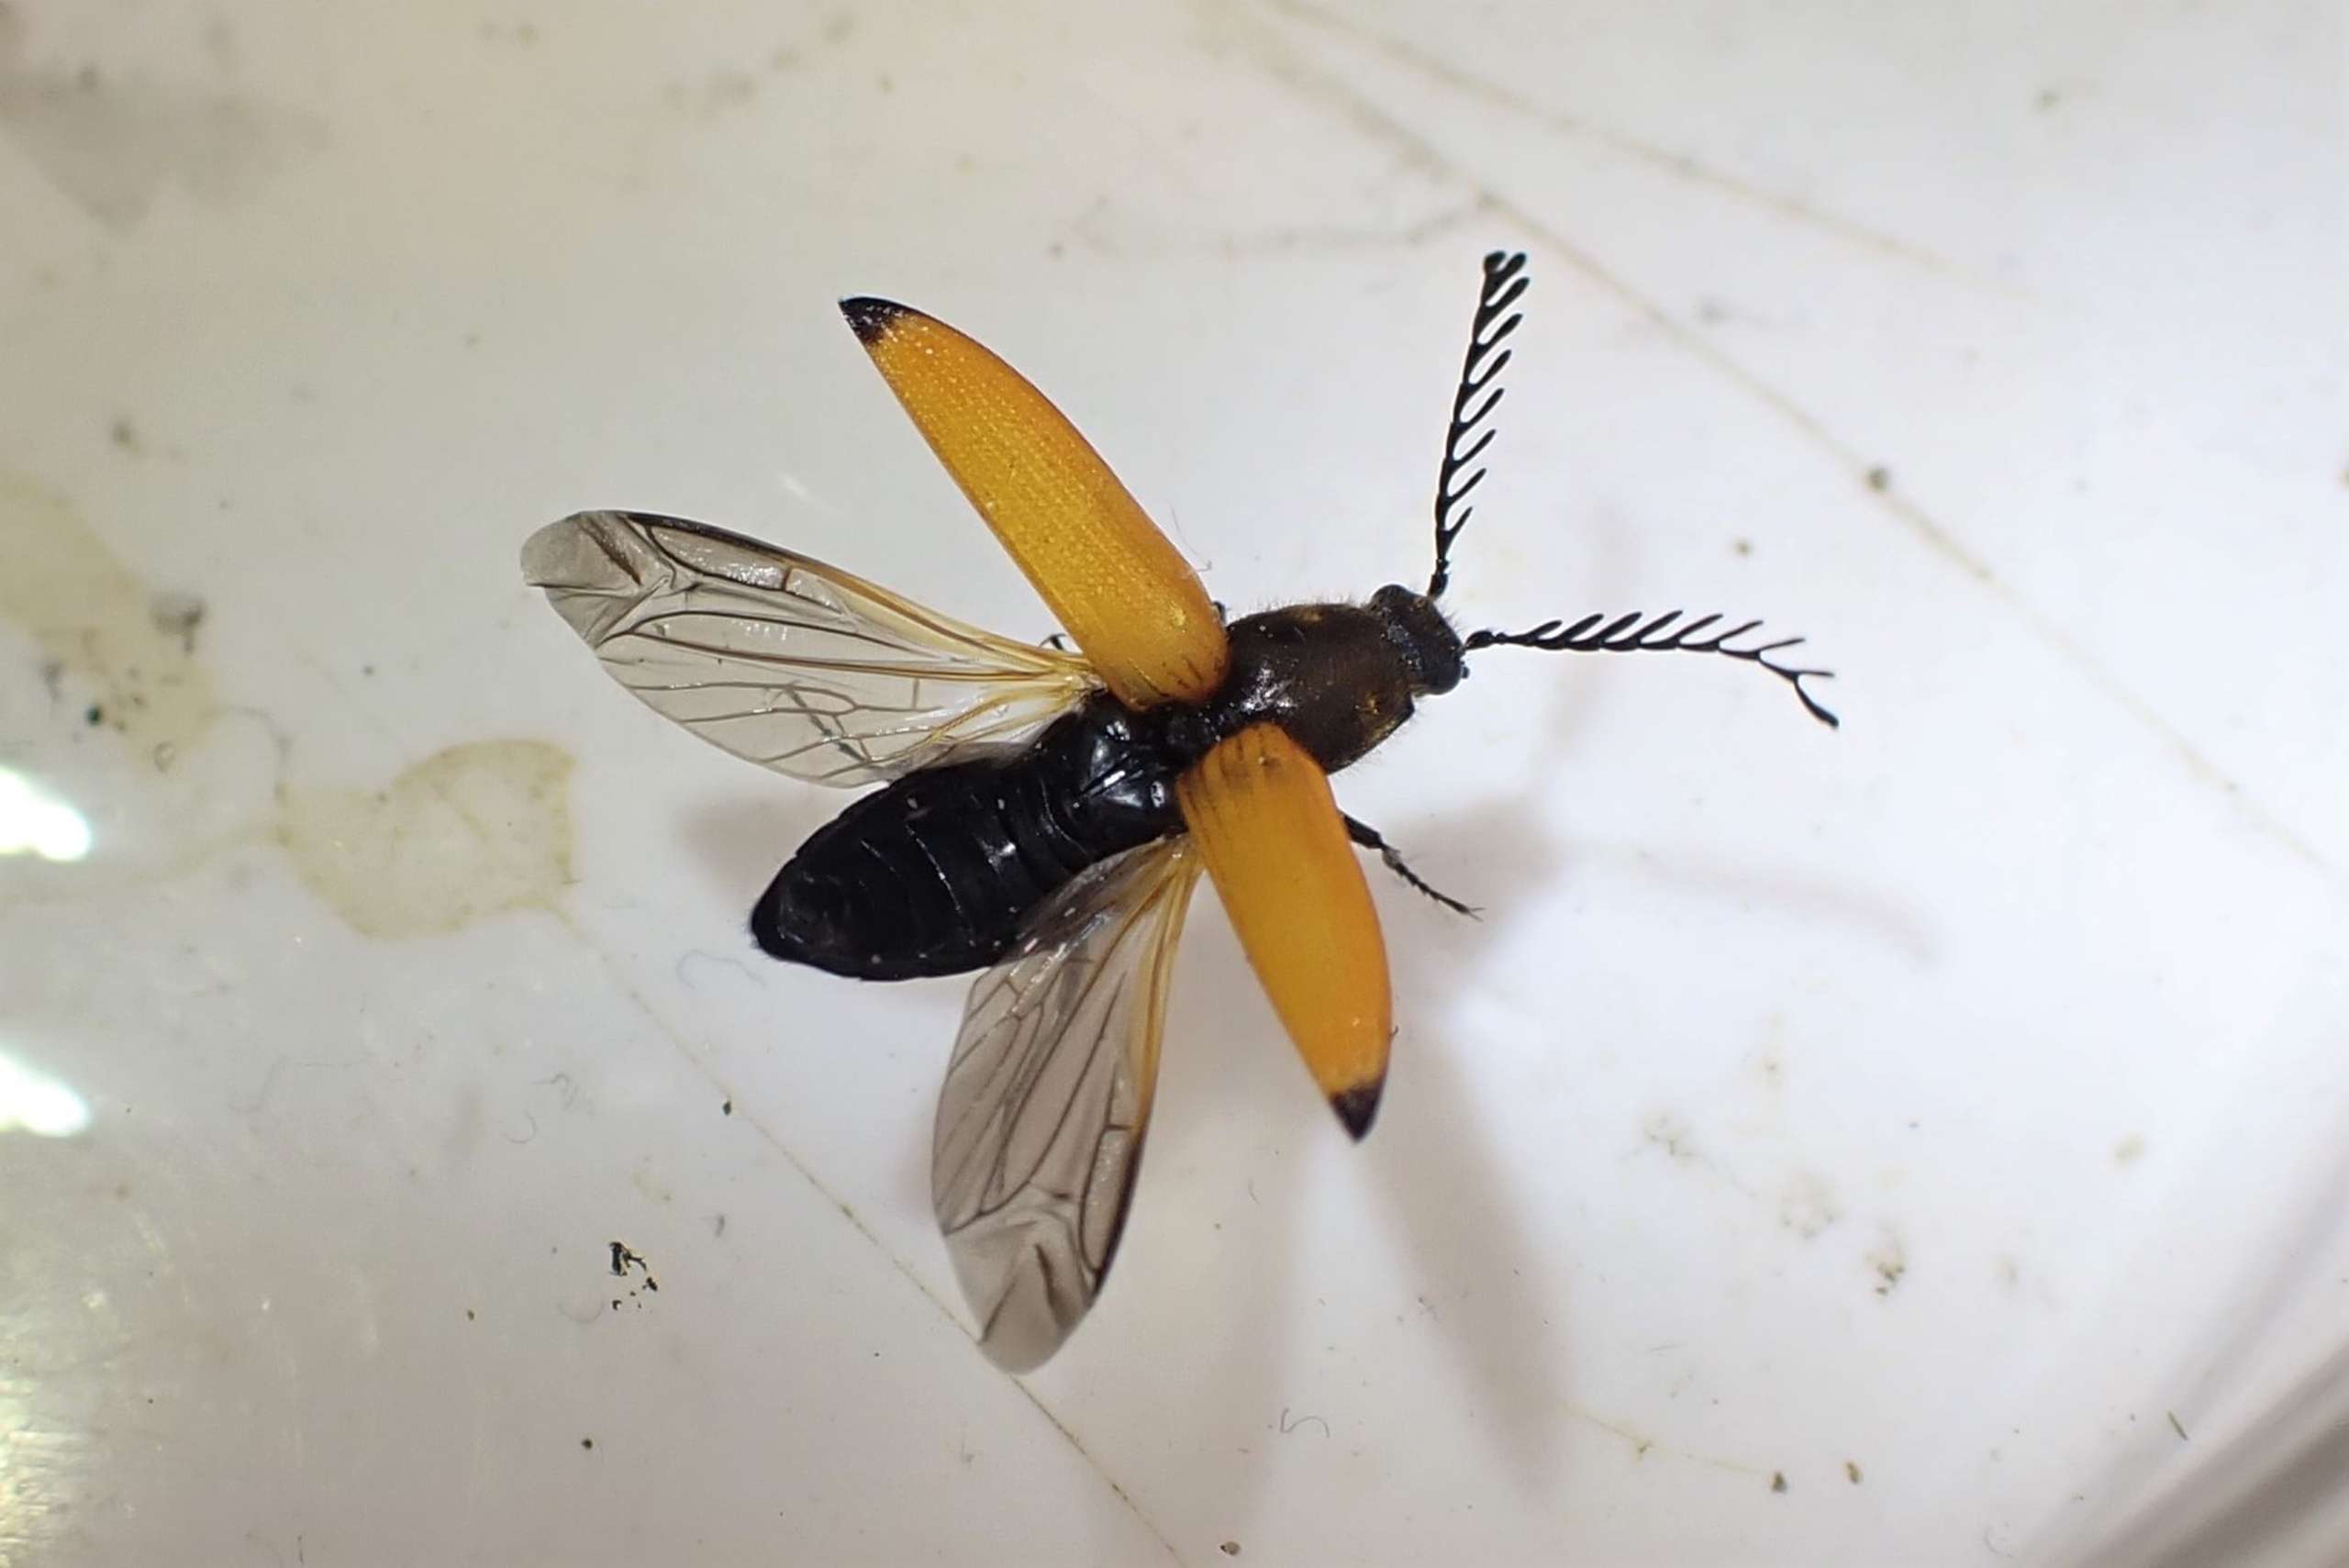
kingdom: Animalia
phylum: Arthropoda
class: Insecta
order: Coleoptera
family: Elateridae
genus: Anostirus
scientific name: Anostirus castaneus
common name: Brungul kamsmælder
